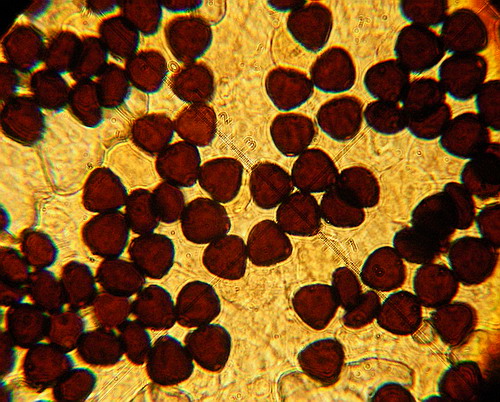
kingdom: Fungi
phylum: Basidiomycota
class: Agaricomycetes
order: Agaricales
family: Psathyrellaceae
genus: Parasola
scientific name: Parasola schroeteri
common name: bredsporet hjulhat
